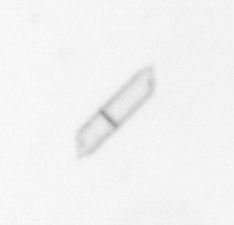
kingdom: Chromista
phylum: Ochrophyta
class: Bacillariophyceae
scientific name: Bacillariophyceae
